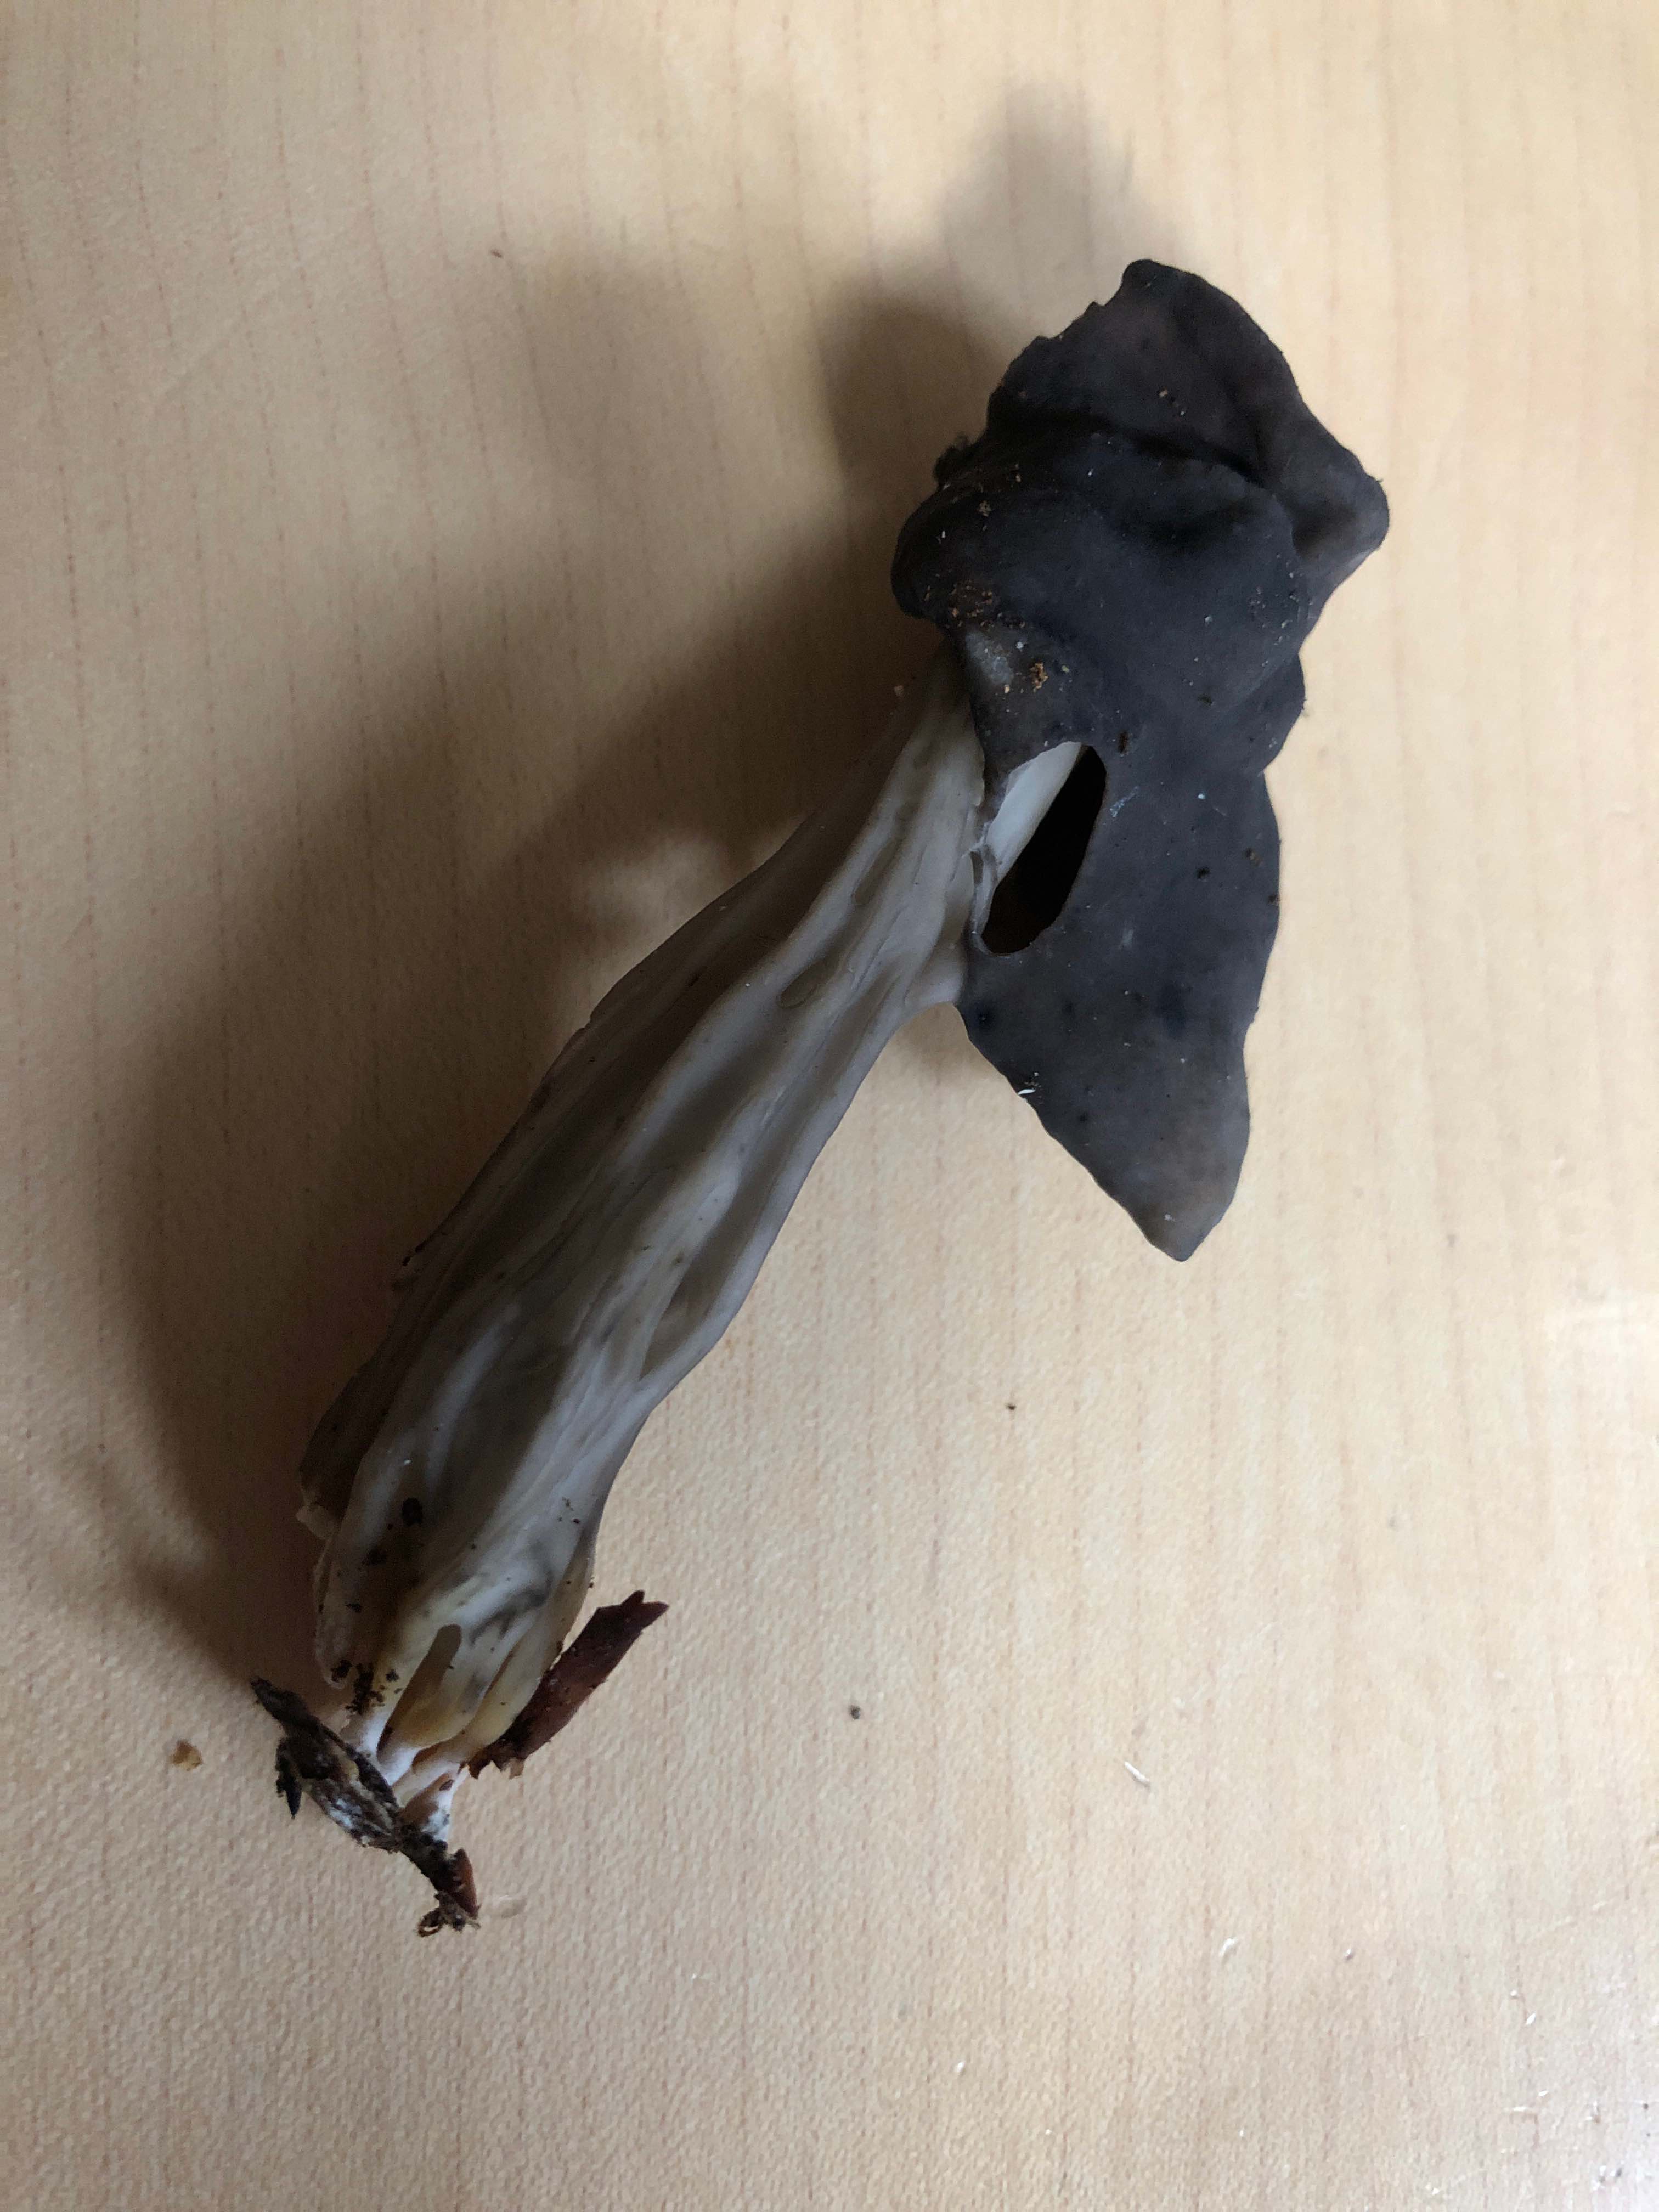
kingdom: Fungi
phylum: Ascomycota
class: Pezizomycetes
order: Pezizales
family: Helvellaceae
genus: Helvella
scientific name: Helvella lacunosa
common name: grubet foldhat
